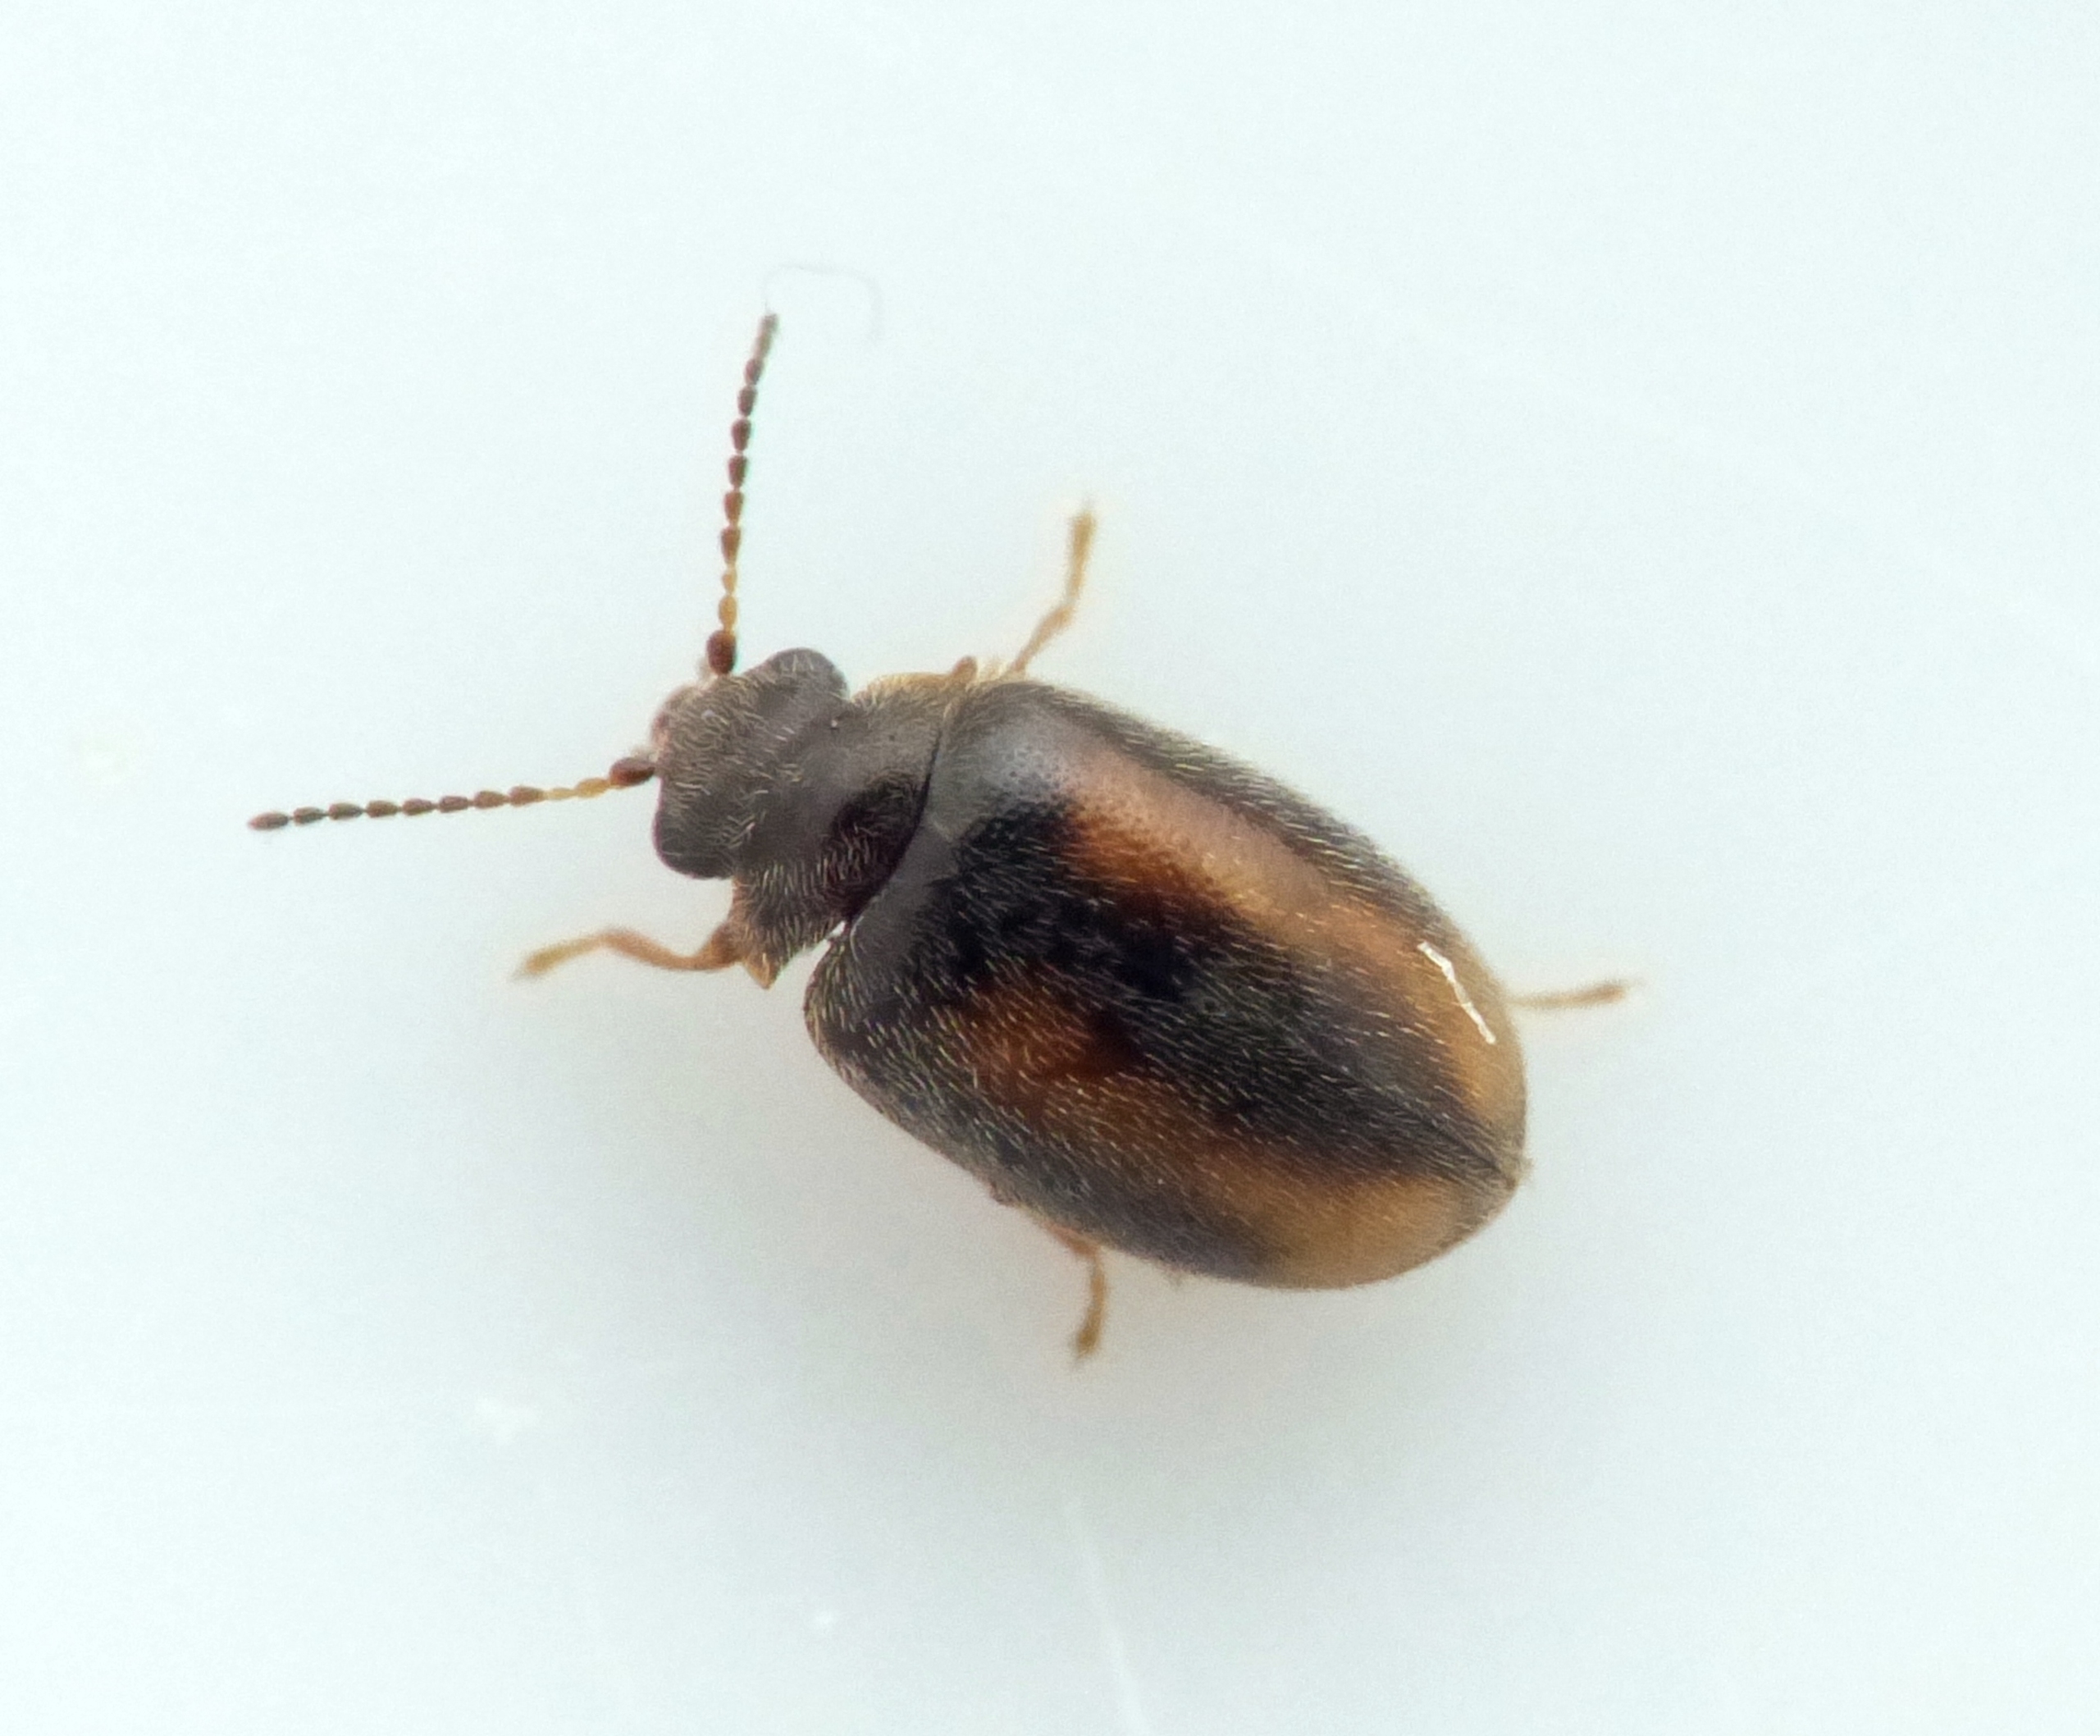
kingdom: Animalia
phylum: Arthropoda
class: Insecta
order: Coleoptera
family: Scirtidae
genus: Cyphon
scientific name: Cyphon padi
